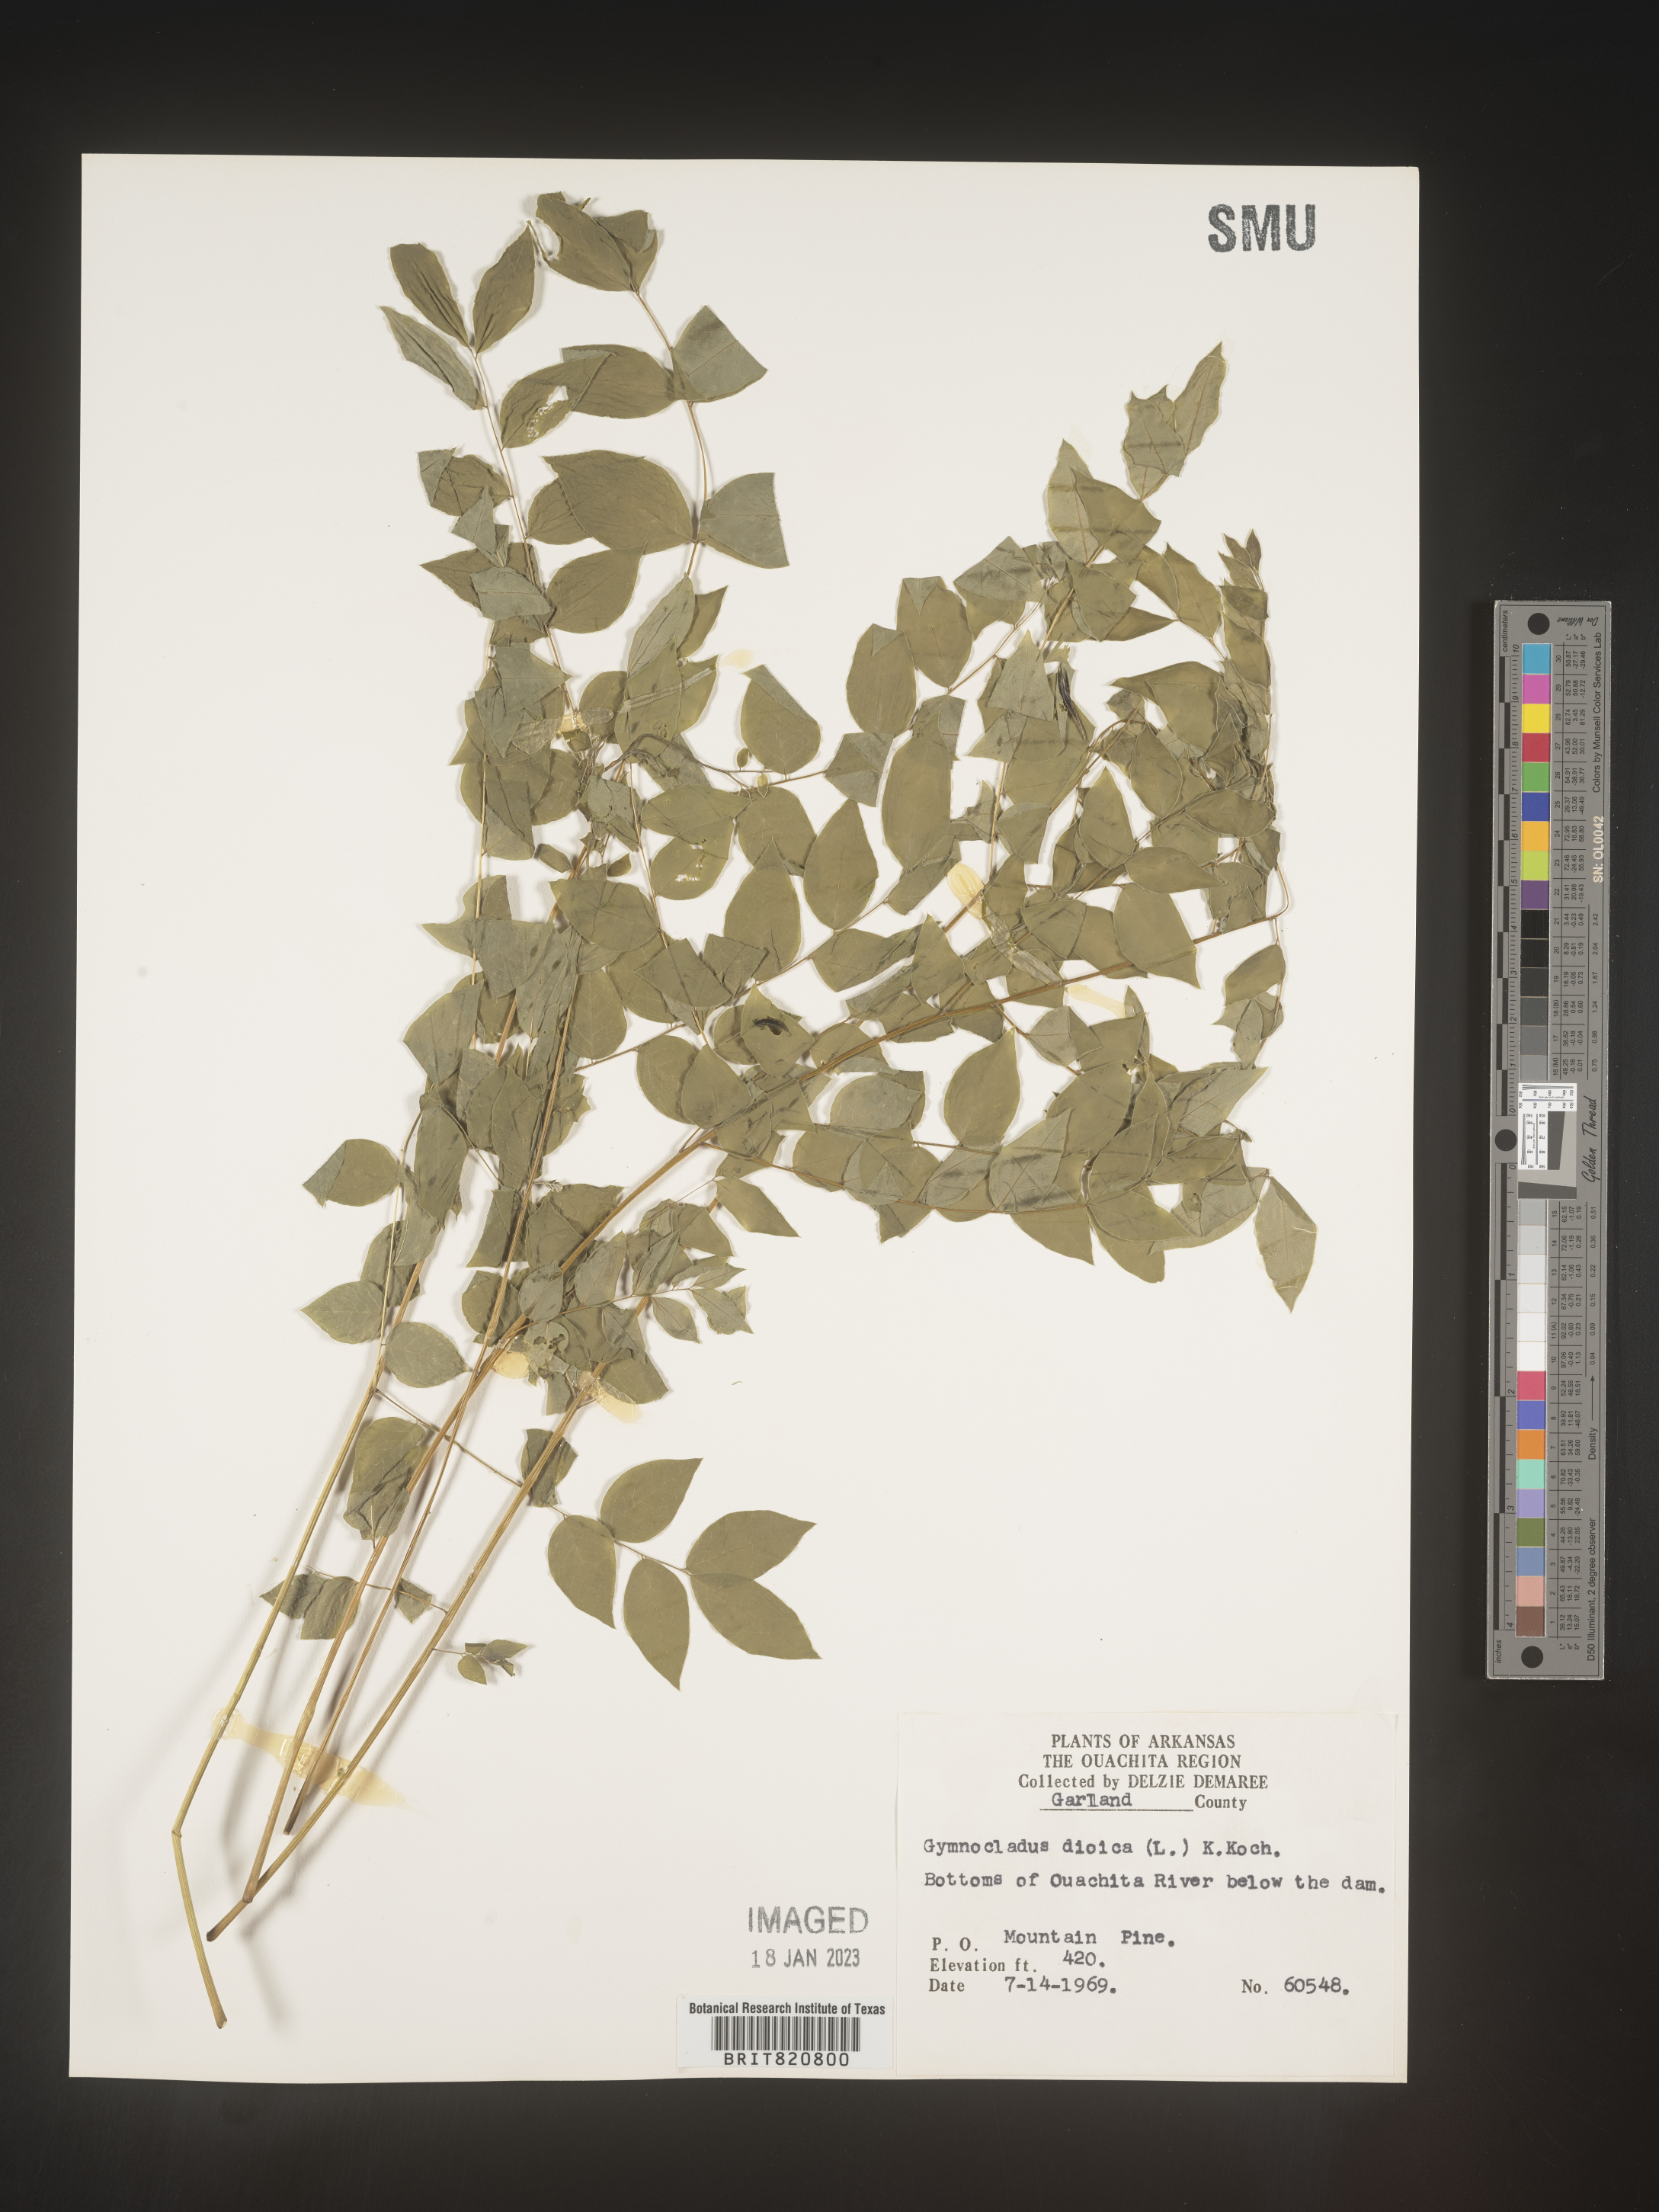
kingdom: Plantae
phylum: Tracheophyta
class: Magnoliopsida
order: Fabales
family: Fabaceae
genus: Gymnocladus
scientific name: Gymnocladus
